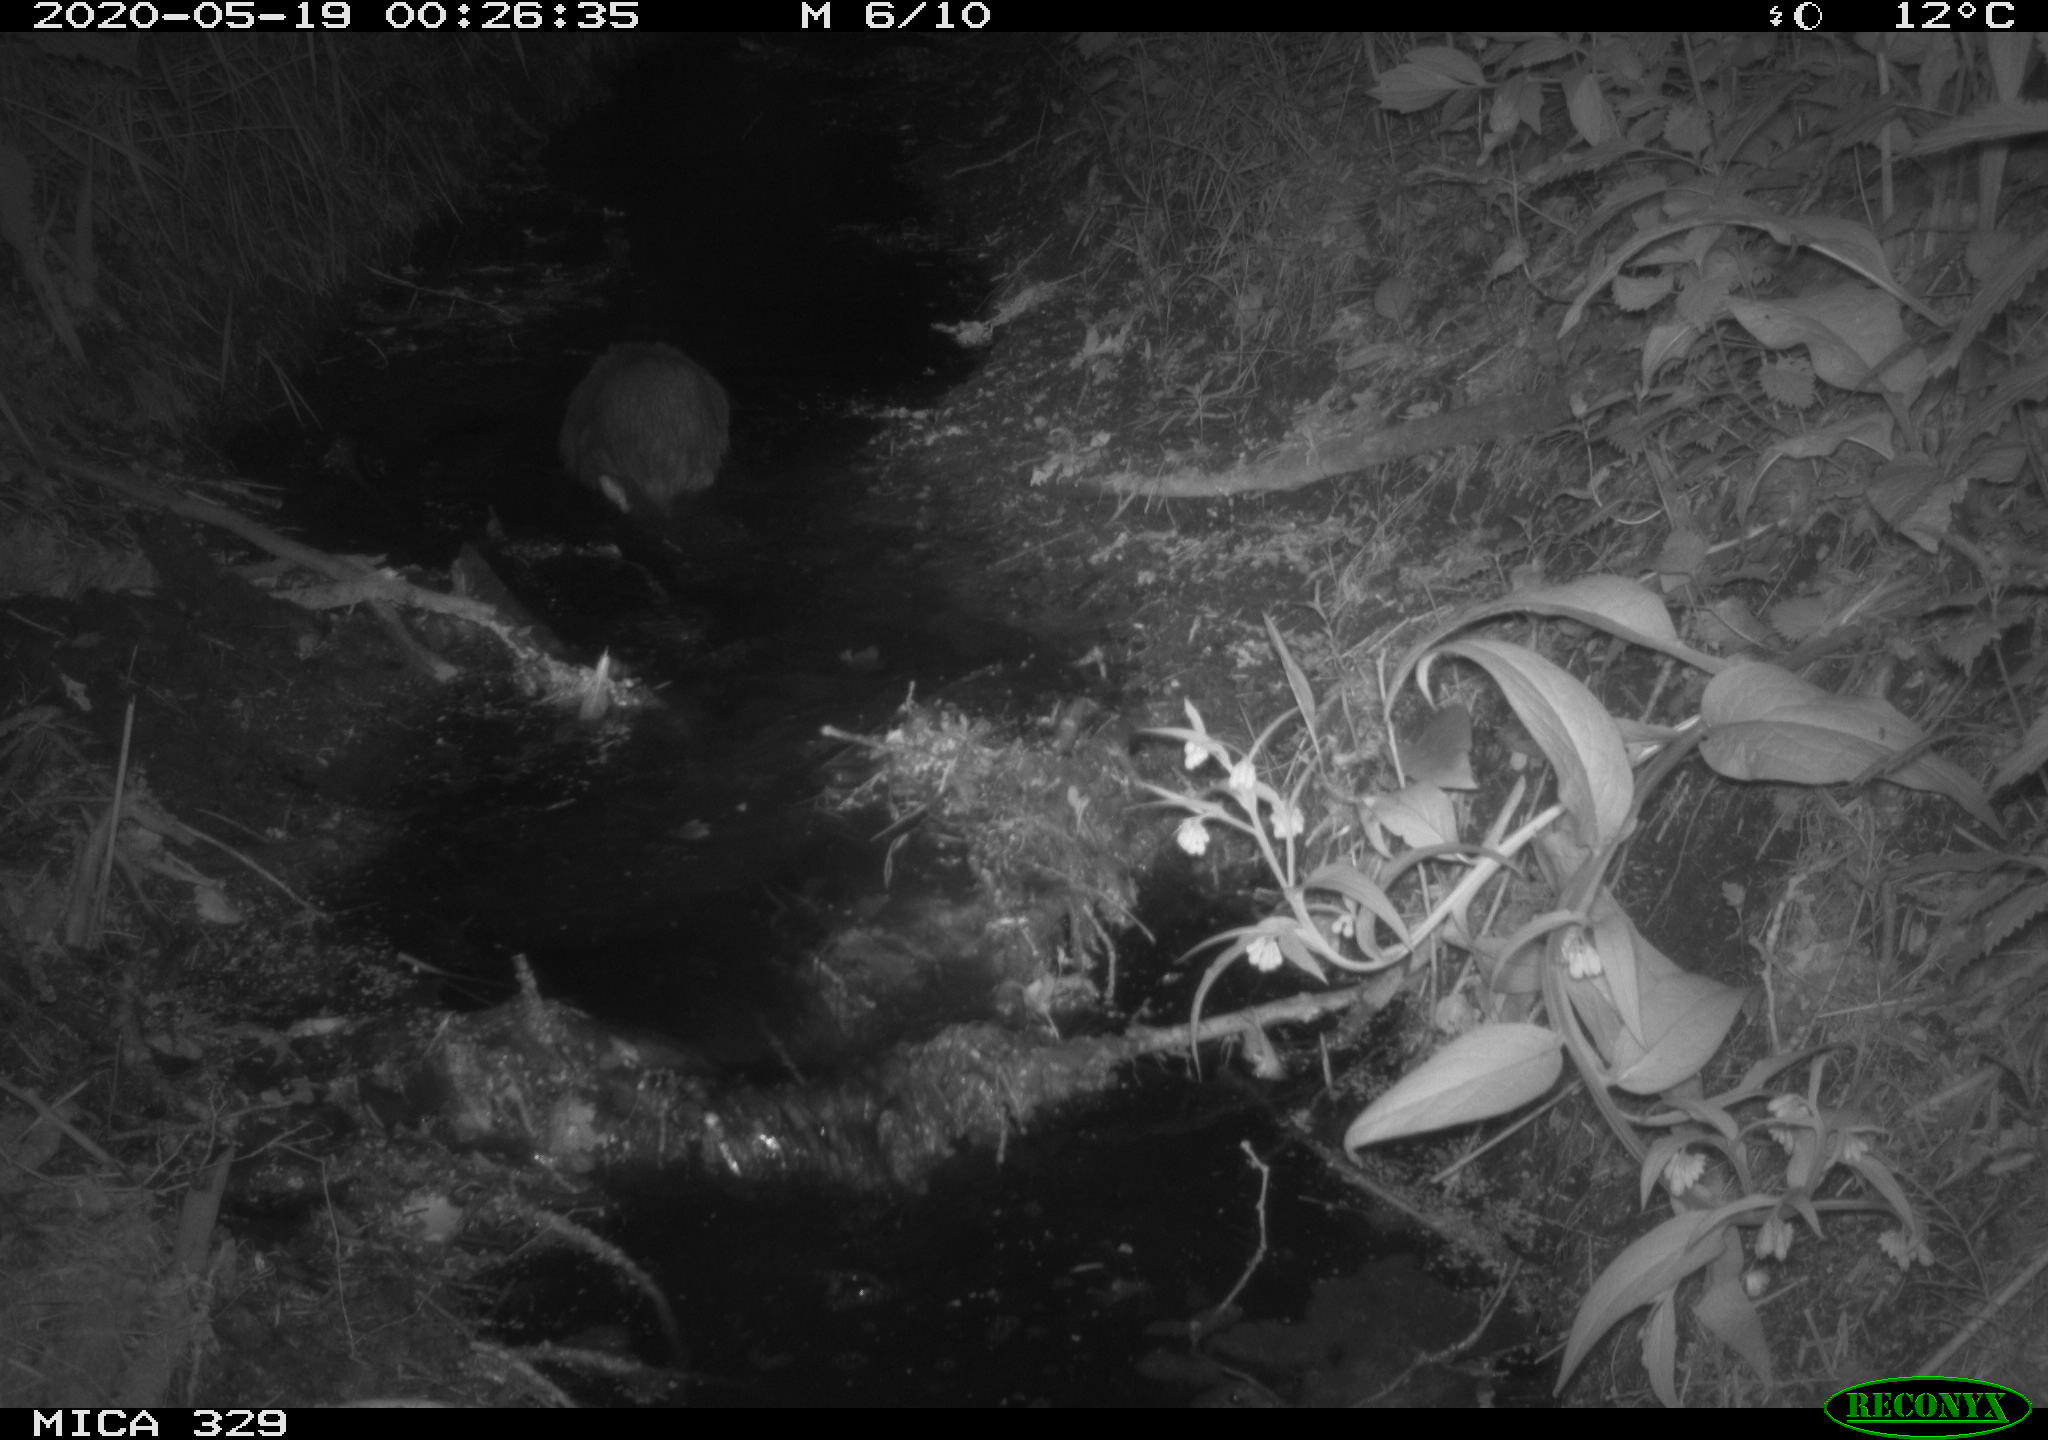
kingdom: Animalia
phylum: Chordata
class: Mammalia
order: Rodentia
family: Myocastoridae
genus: Myocastor
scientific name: Myocastor coypus
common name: Coypu
